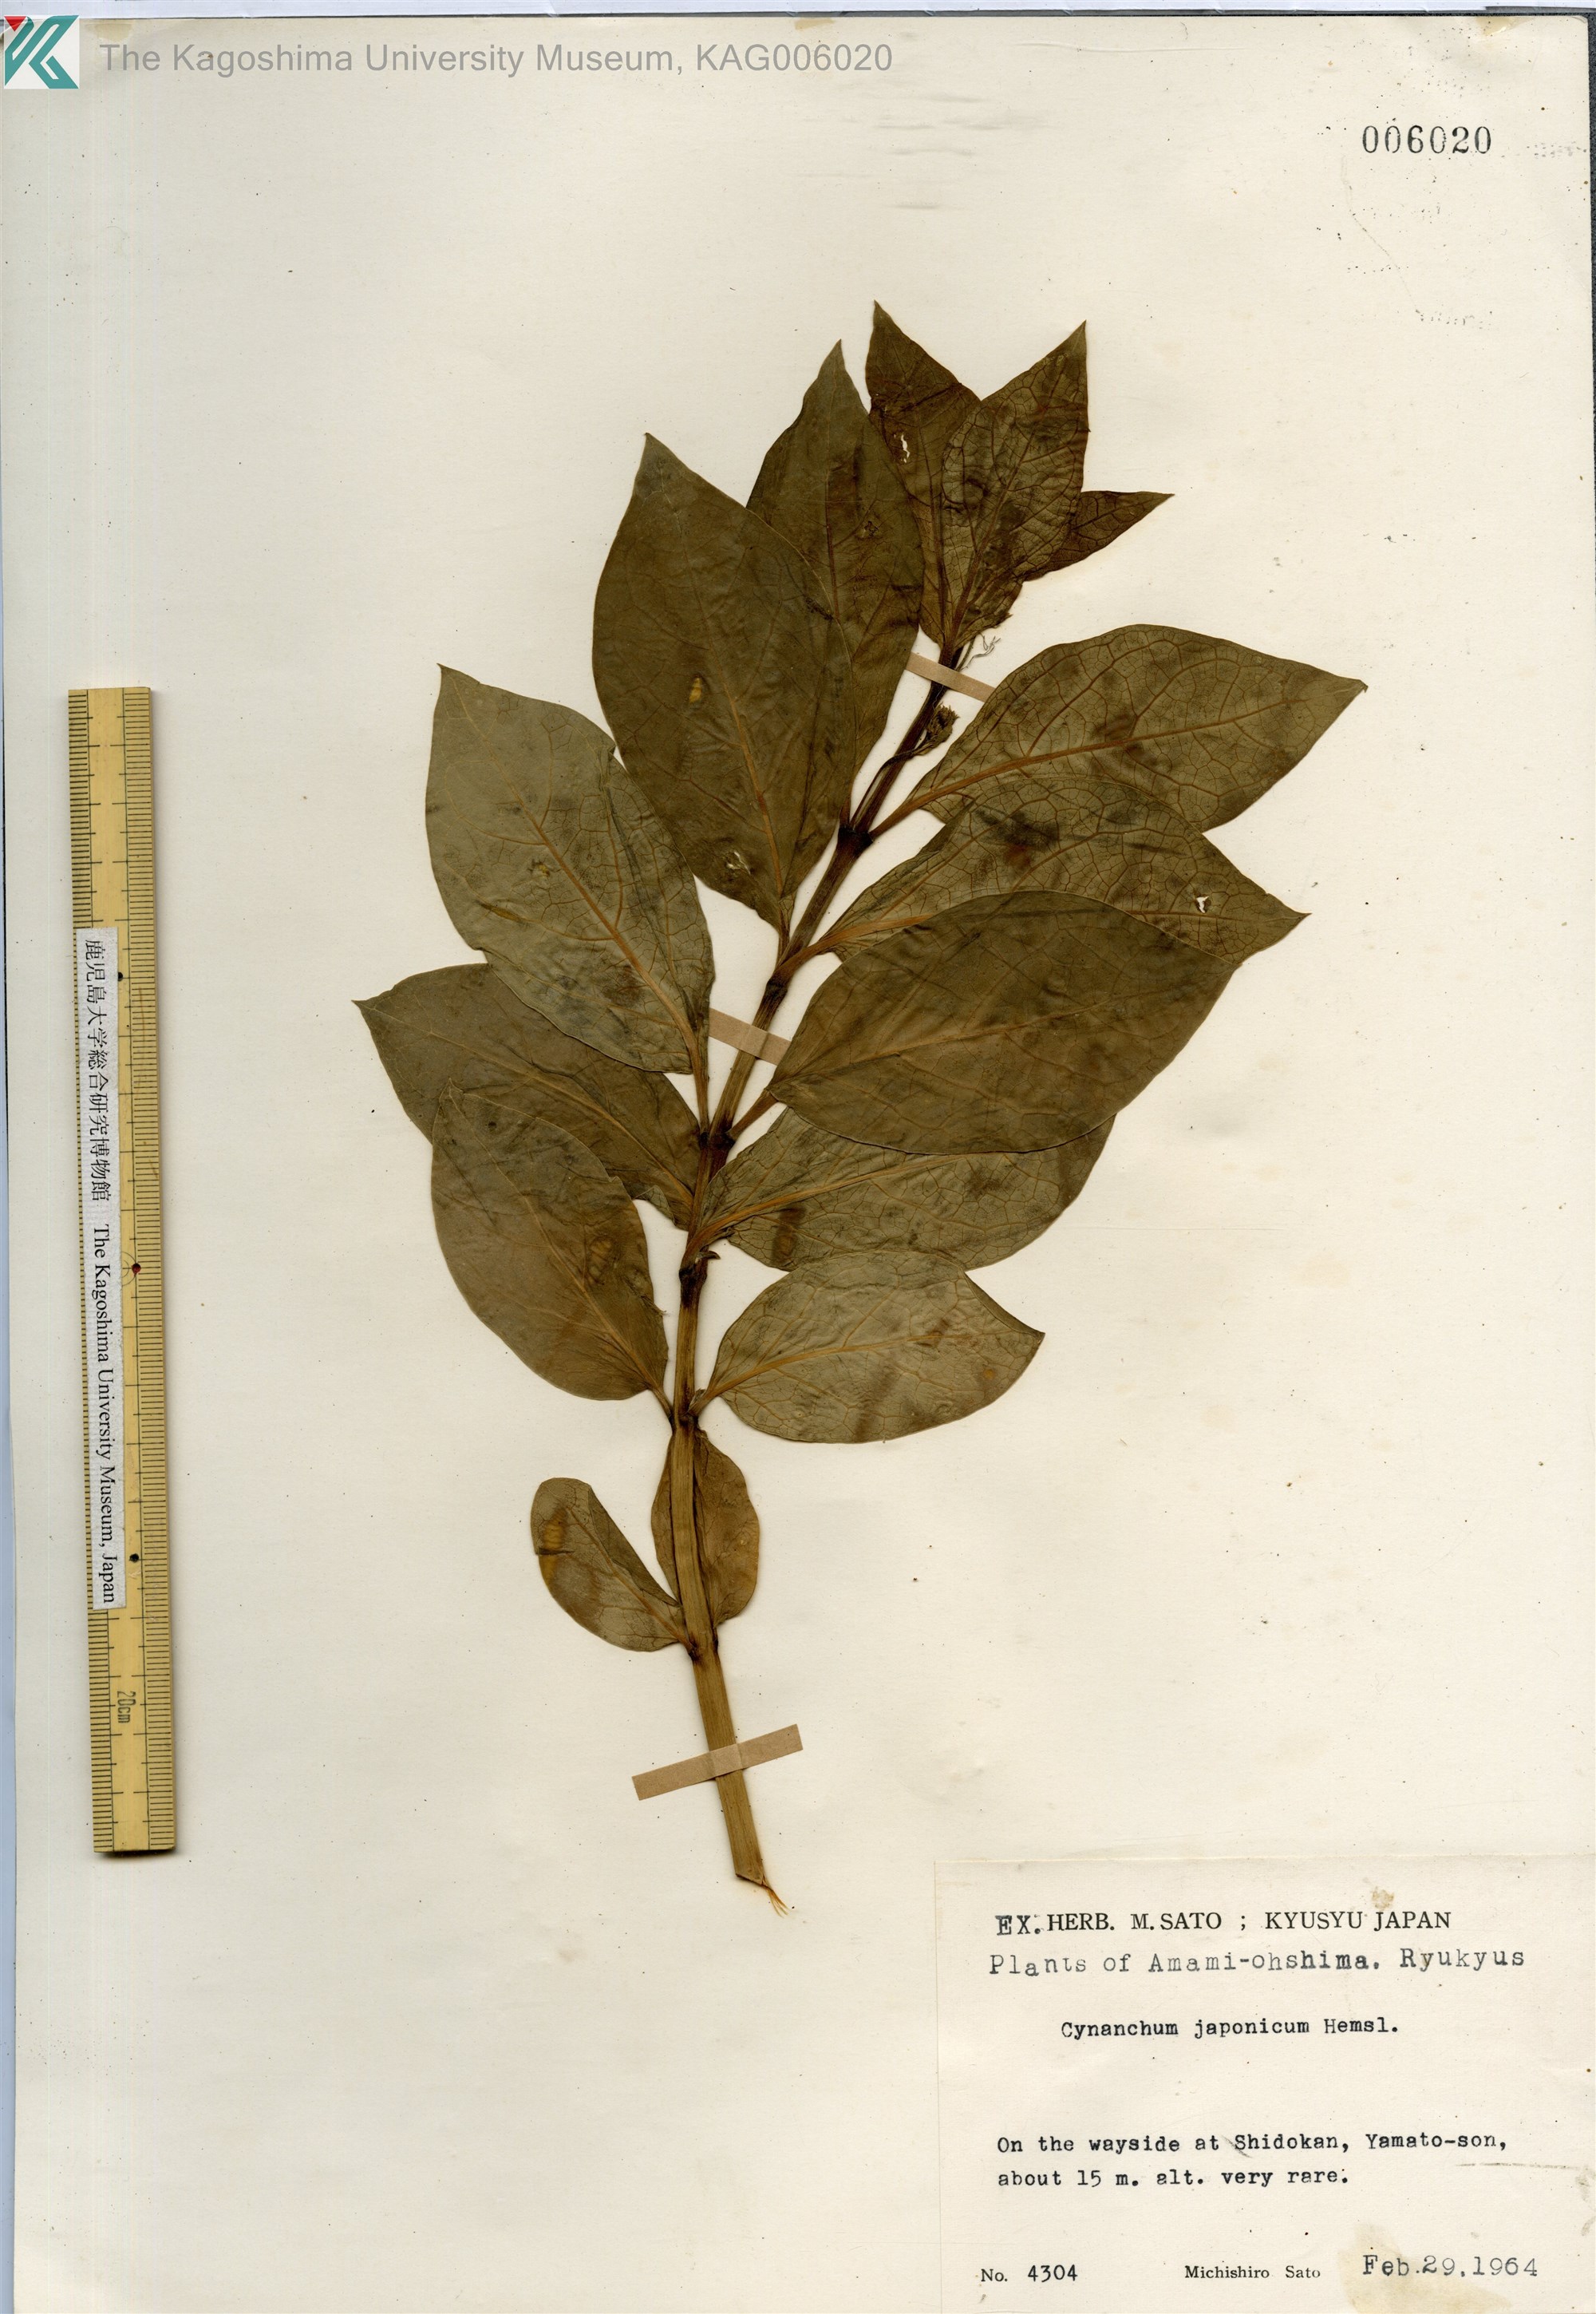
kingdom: Plantae
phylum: Tracheophyta
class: Magnoliopsida
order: Gentianales
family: Apocynaceae
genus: Vincetoxicum
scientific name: Vincetoxicum japonicum
